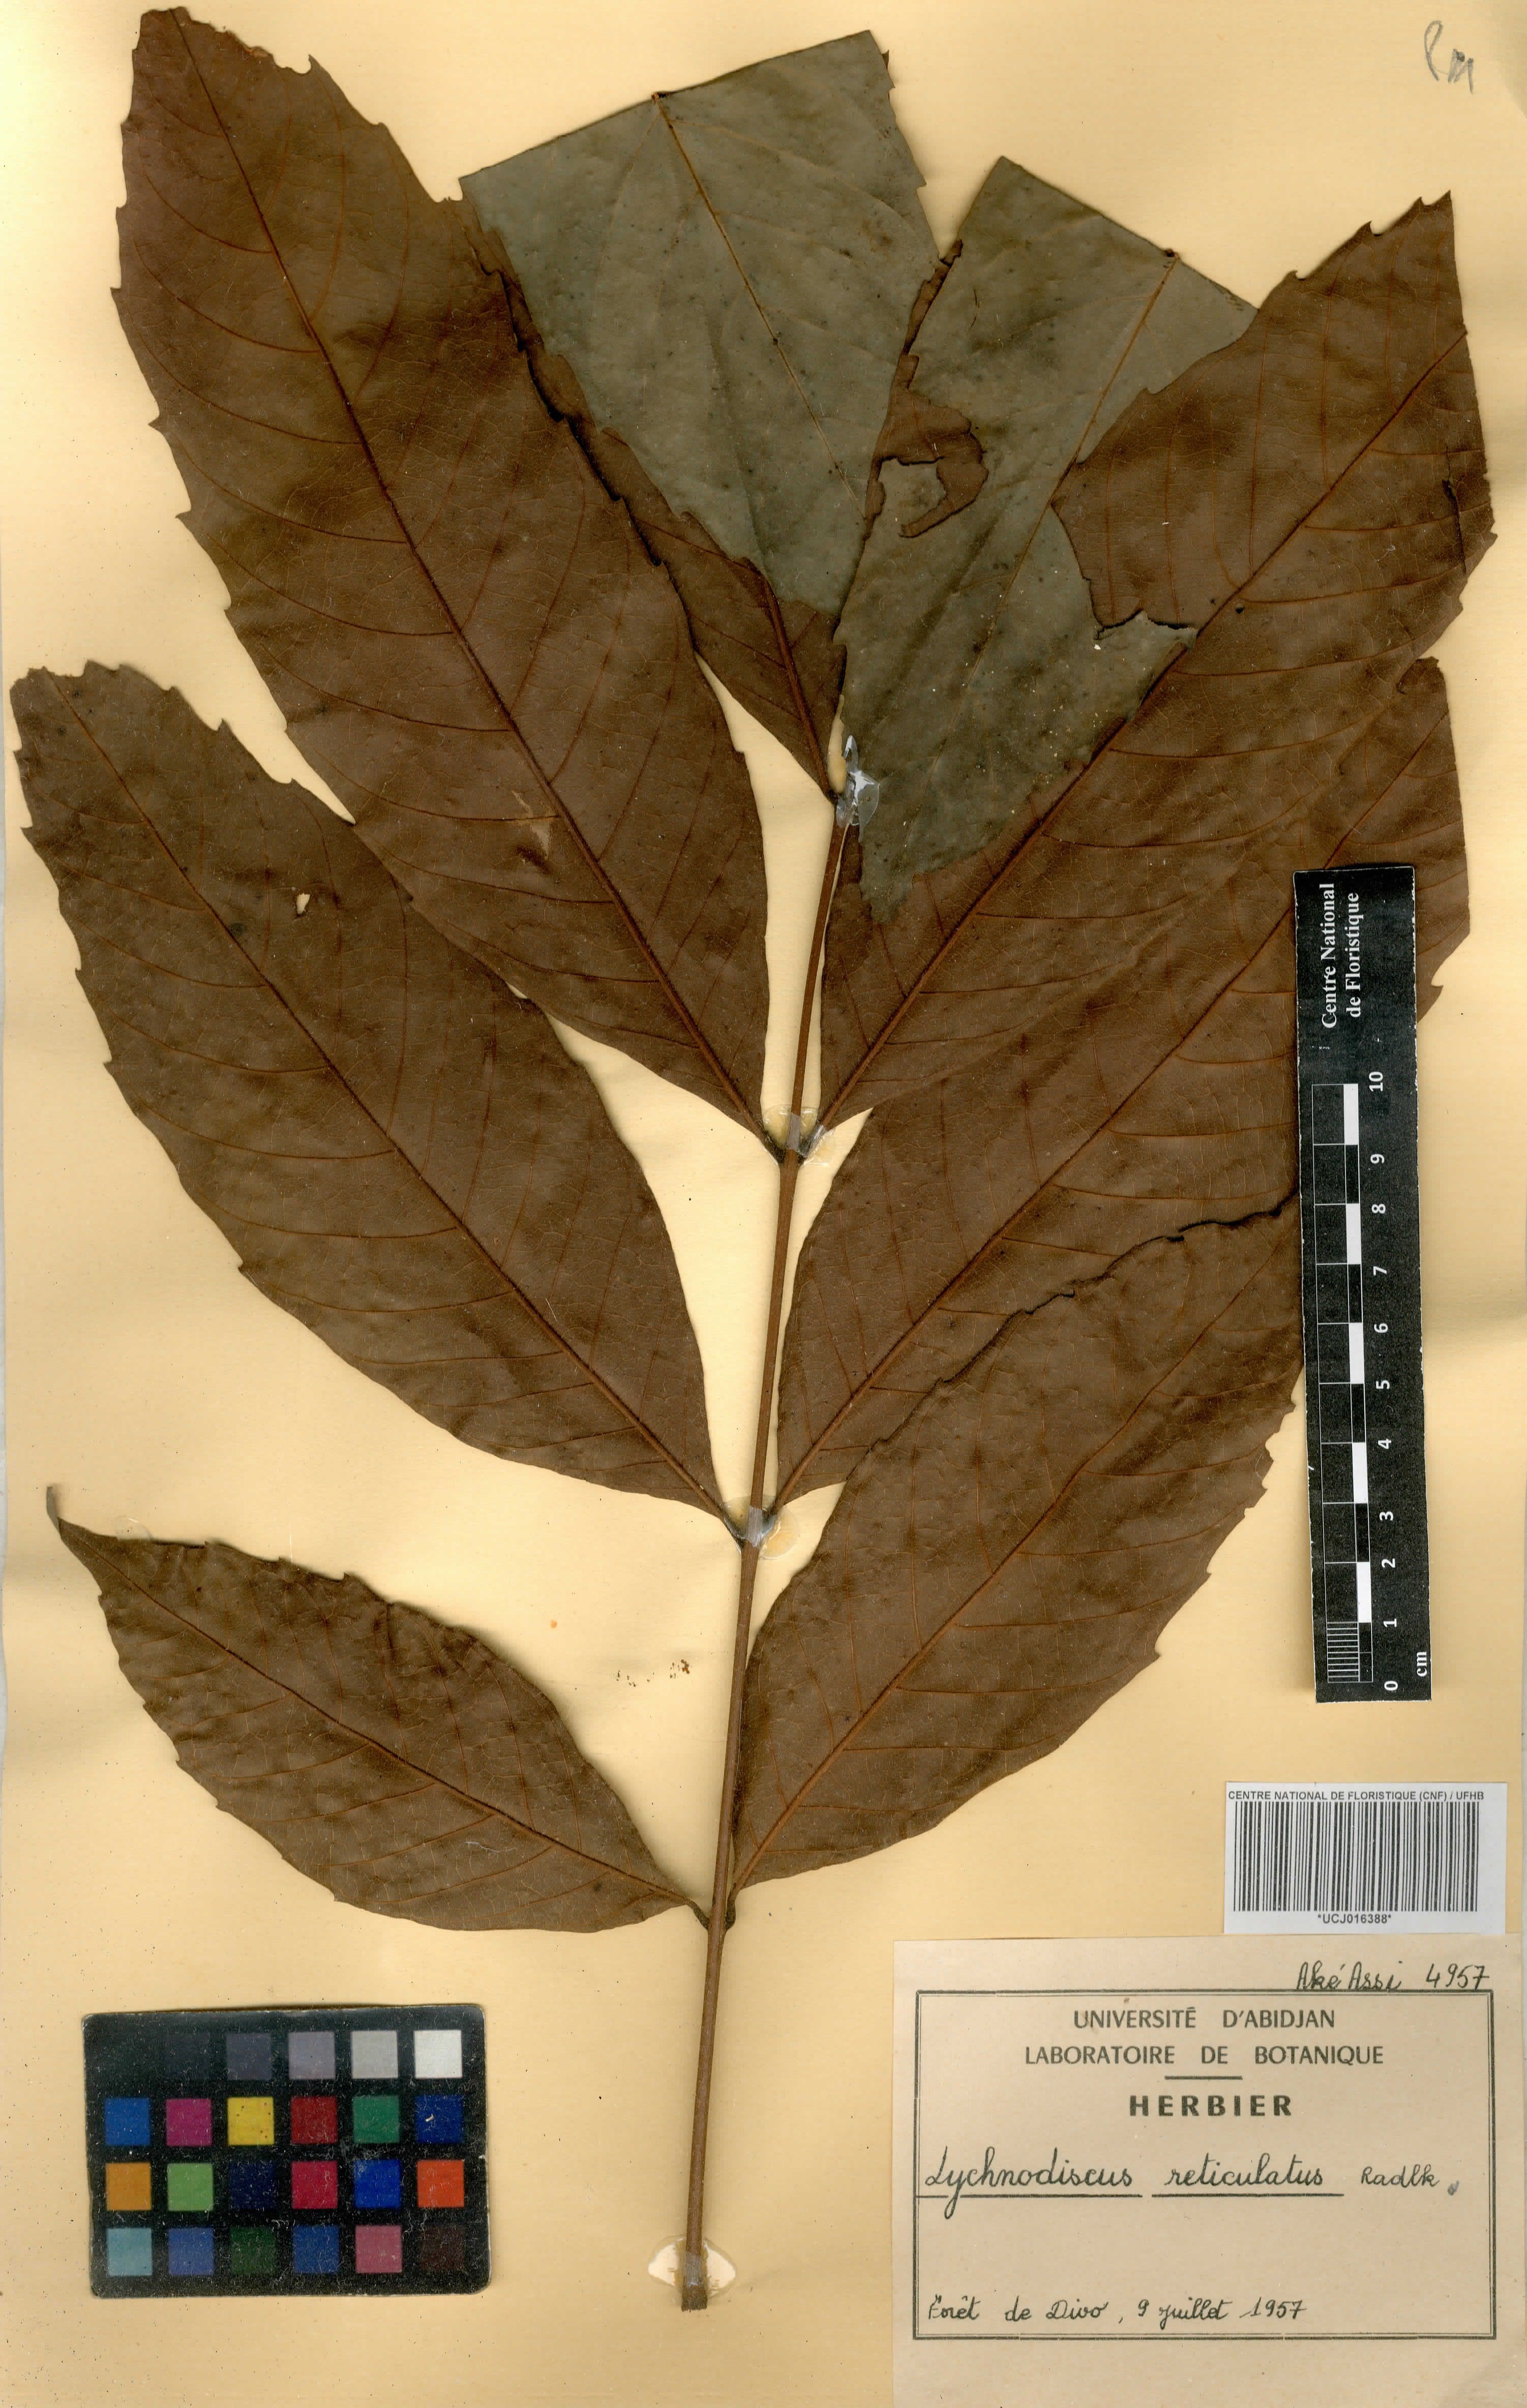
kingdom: Plantae
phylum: Tracheophyta
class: Magnoliopsida
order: Sapindales
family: Sapindaceae
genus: Lychnodiscus
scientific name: Lychnodiscus reticulatus
